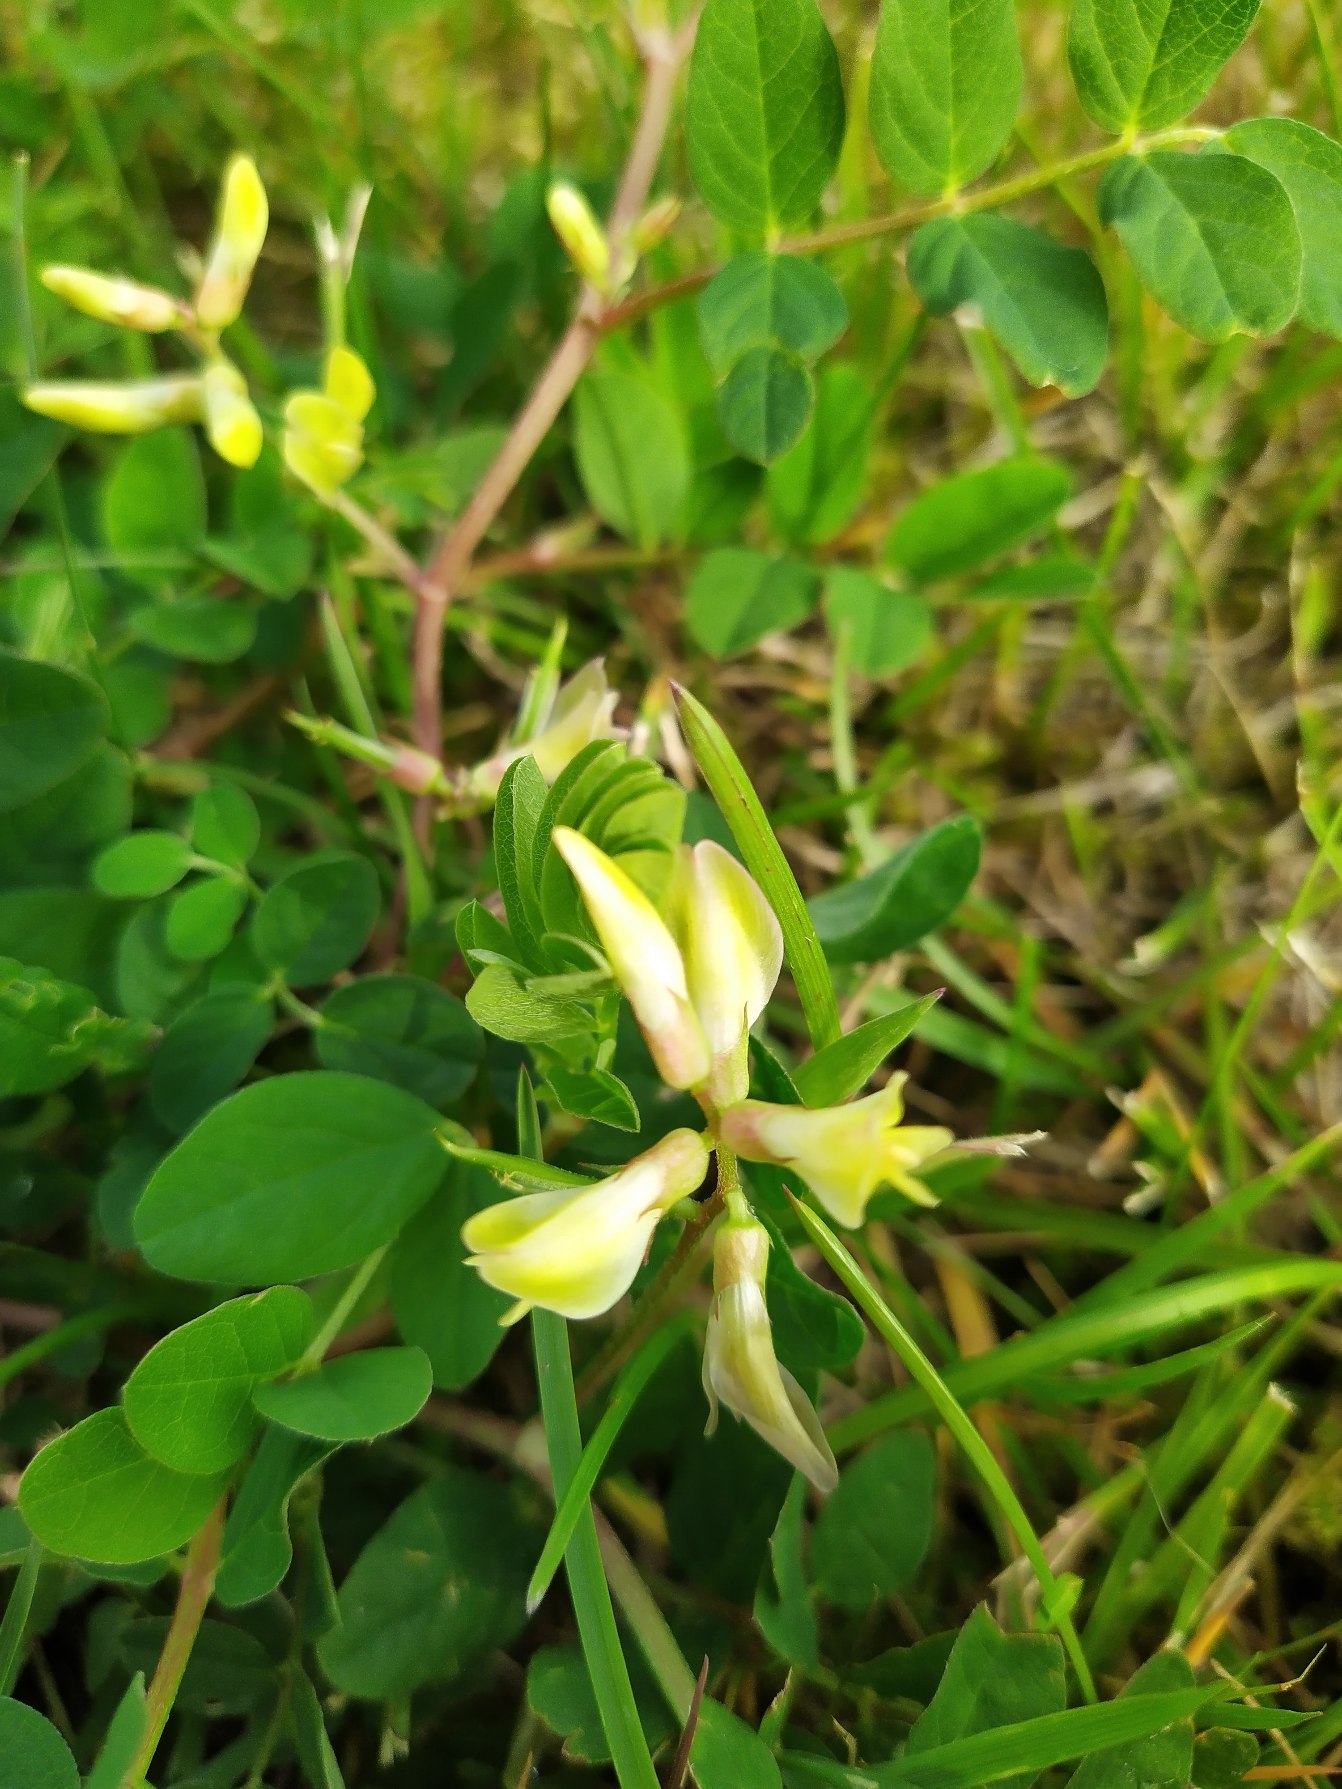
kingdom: Plantae
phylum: Tracheophyta
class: Magnoliopsida
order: Fabales
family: Fabaceae
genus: Astragalus
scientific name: Astragalus glycyphyllos
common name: Sød astragel
